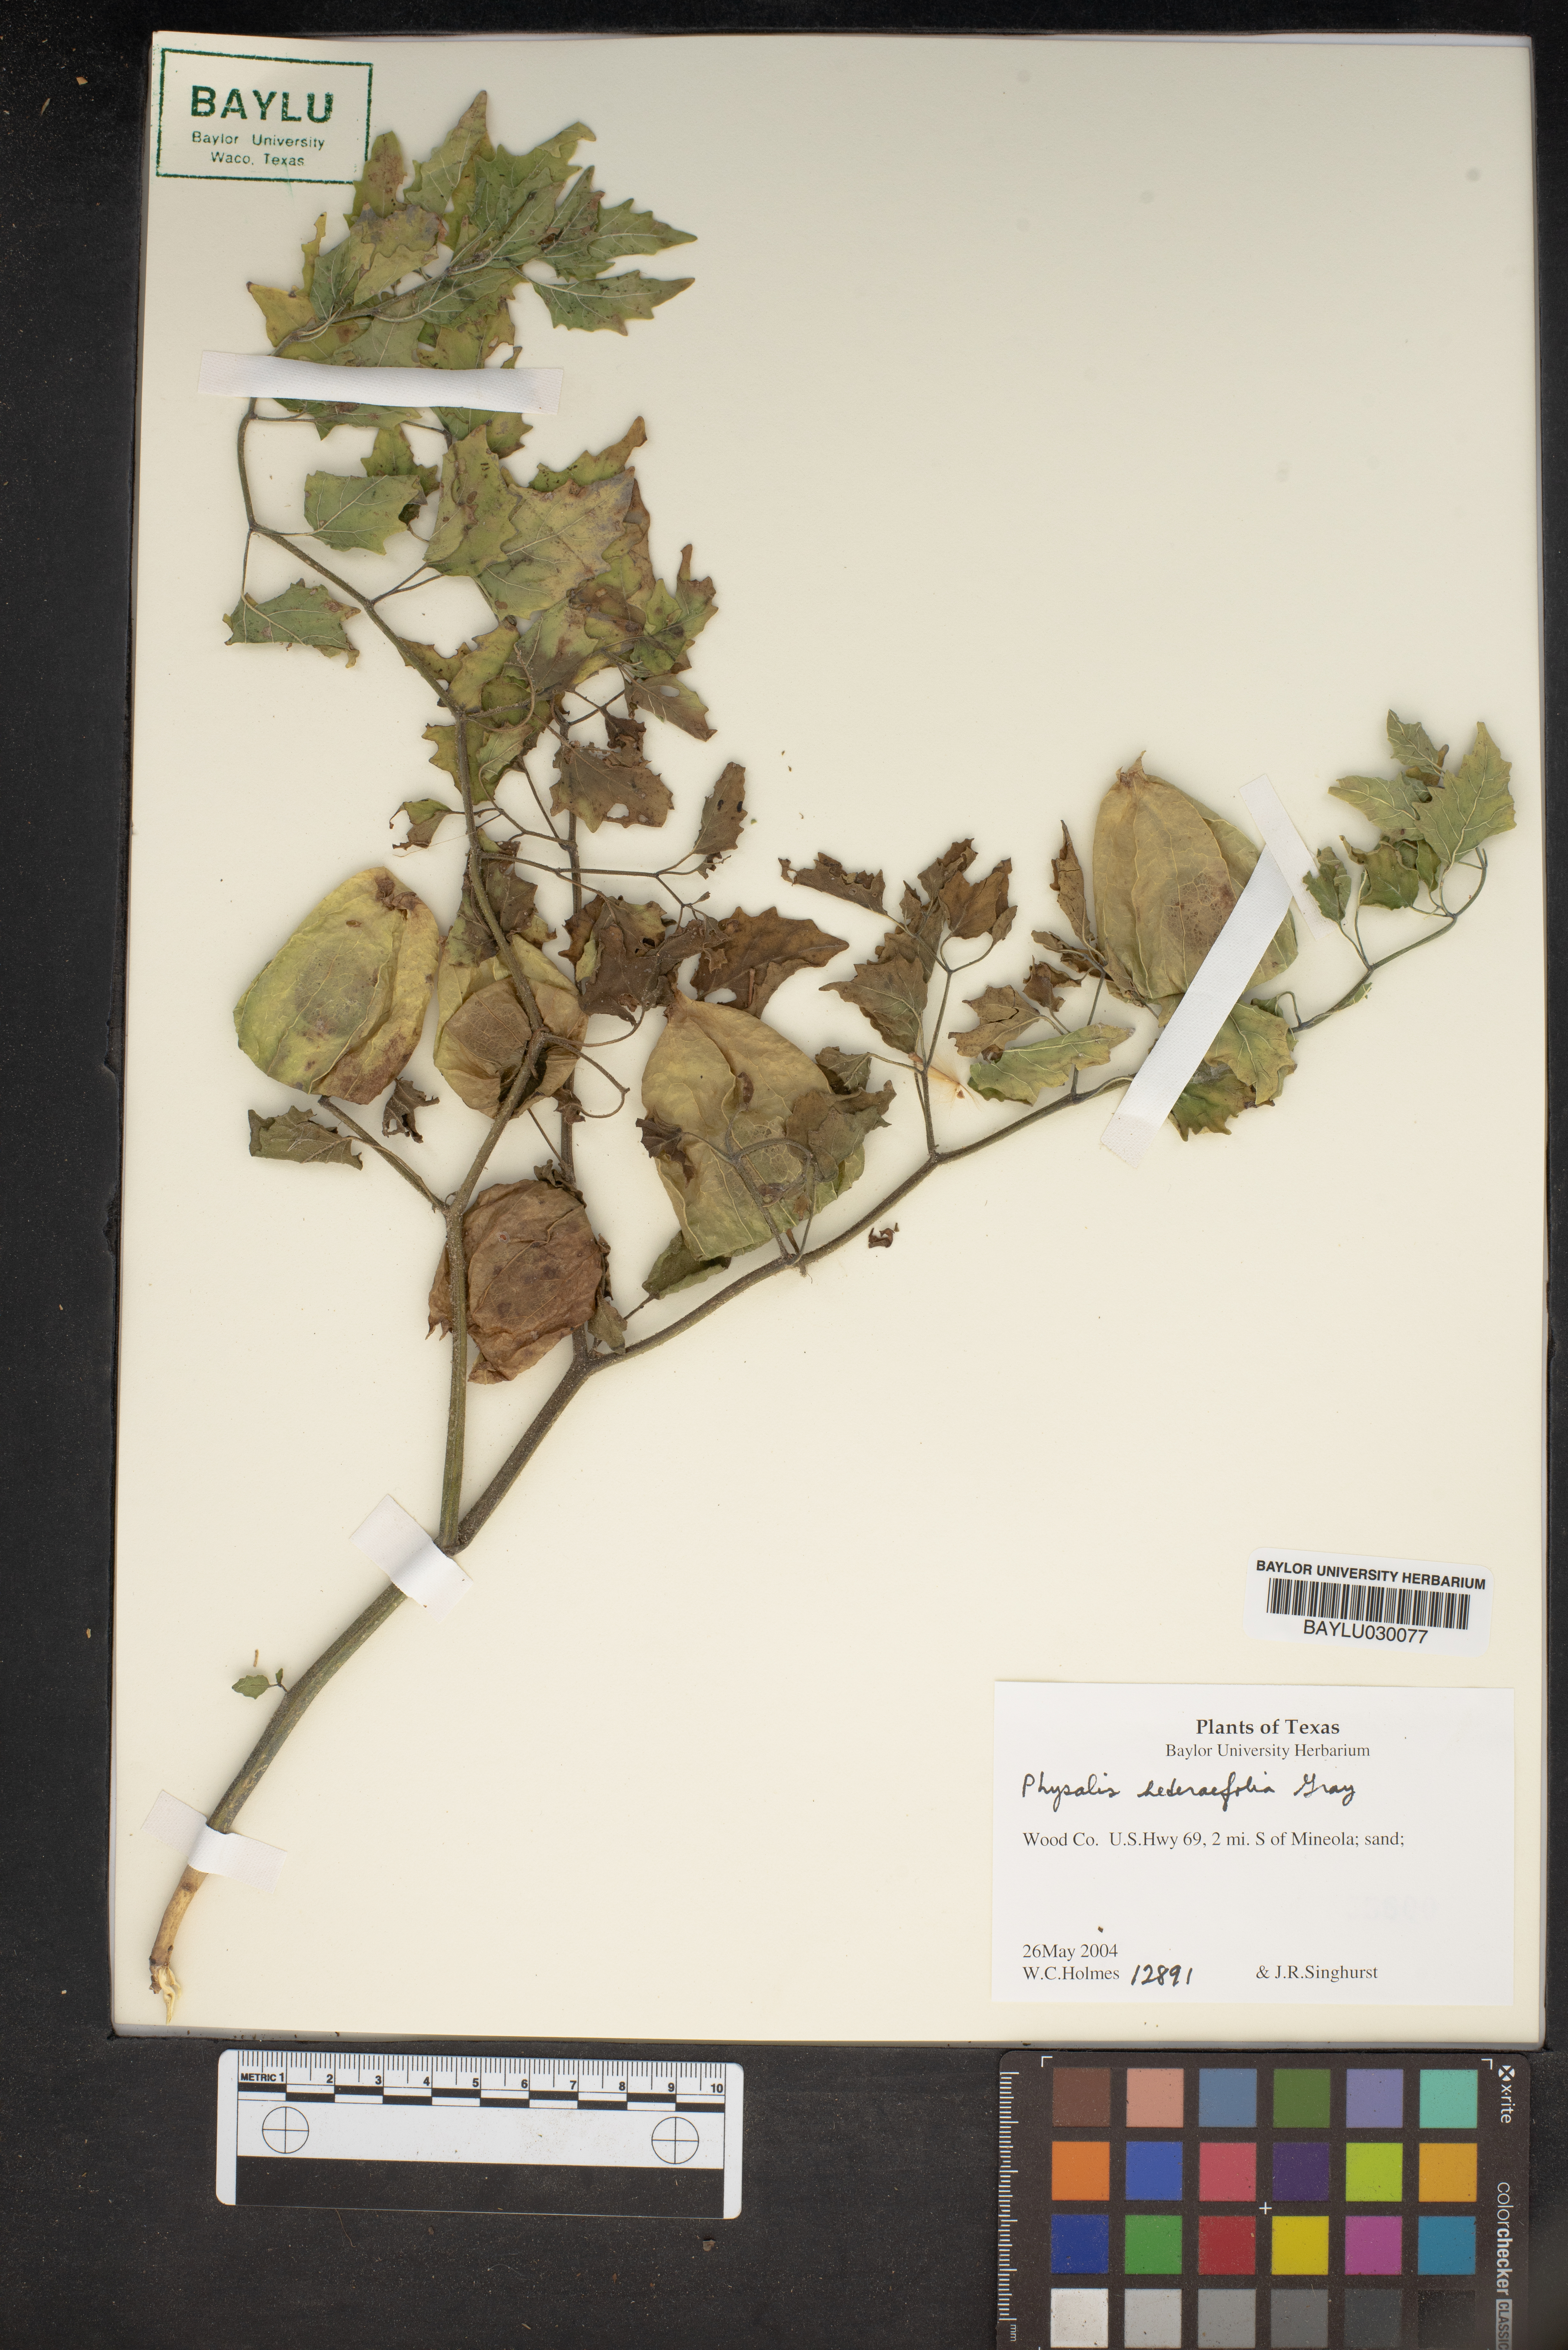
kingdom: Plantae
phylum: Tracheophyta
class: Magnoliopsida
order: Solanales
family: Solanaceae
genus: Physalis
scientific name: Physalis hederifolia
